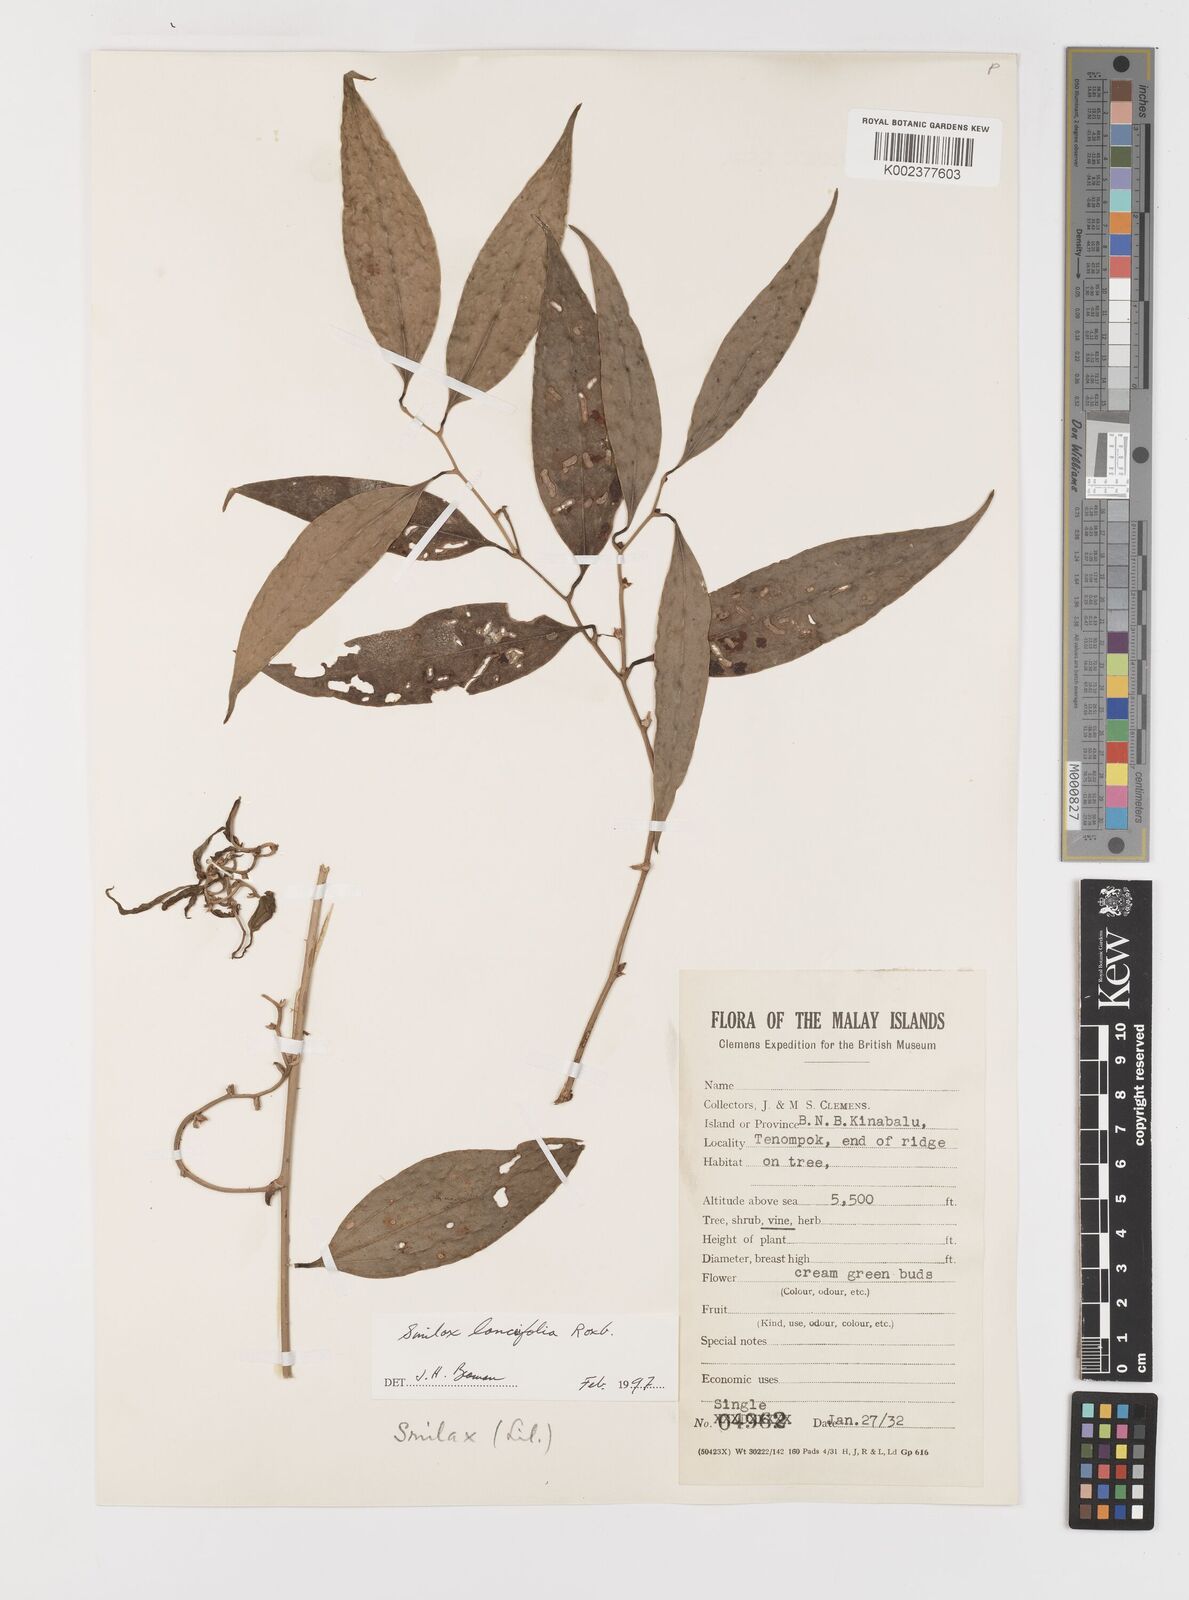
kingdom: Plantae
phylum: Tracheophyta
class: Liliopsida
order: Liliales
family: Smilacaceae
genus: Smilax
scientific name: Smilax lanceifolia
